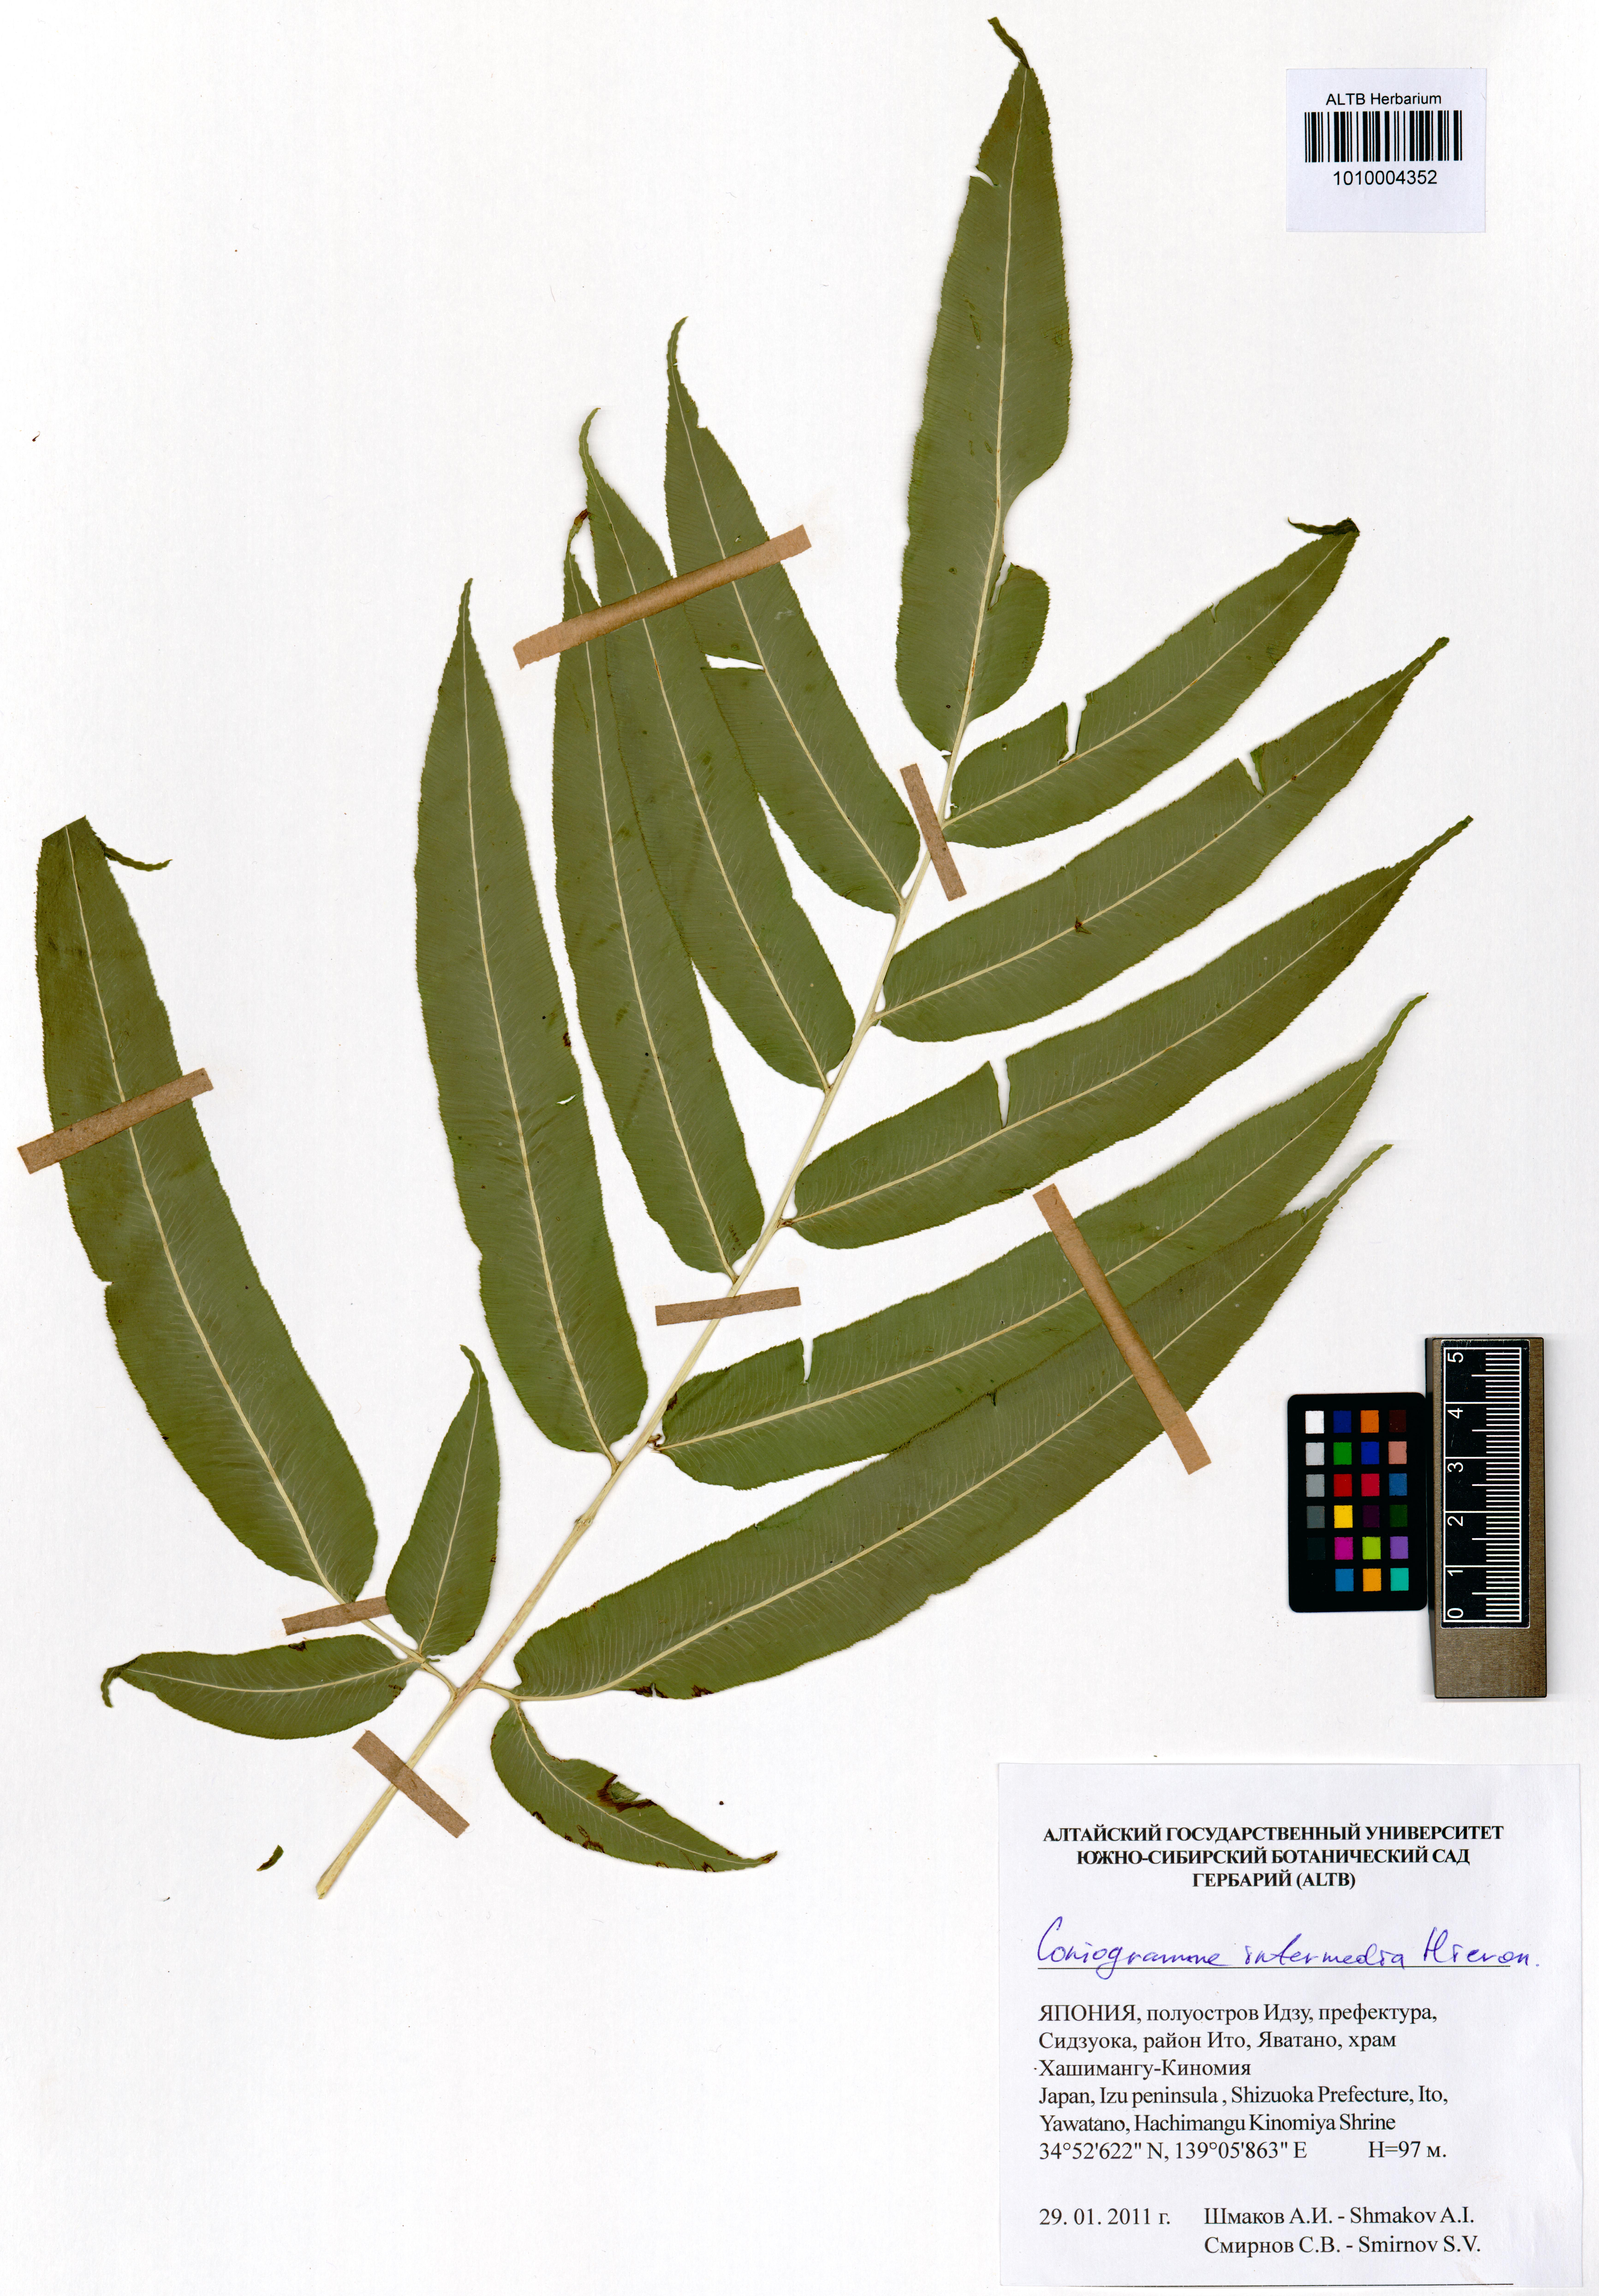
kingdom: Plantae
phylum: Tracheophyta
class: Polypodiopsida
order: Polypodiales
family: Pteridaceae
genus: Coniogramme
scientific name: Coniogramme intermedia
